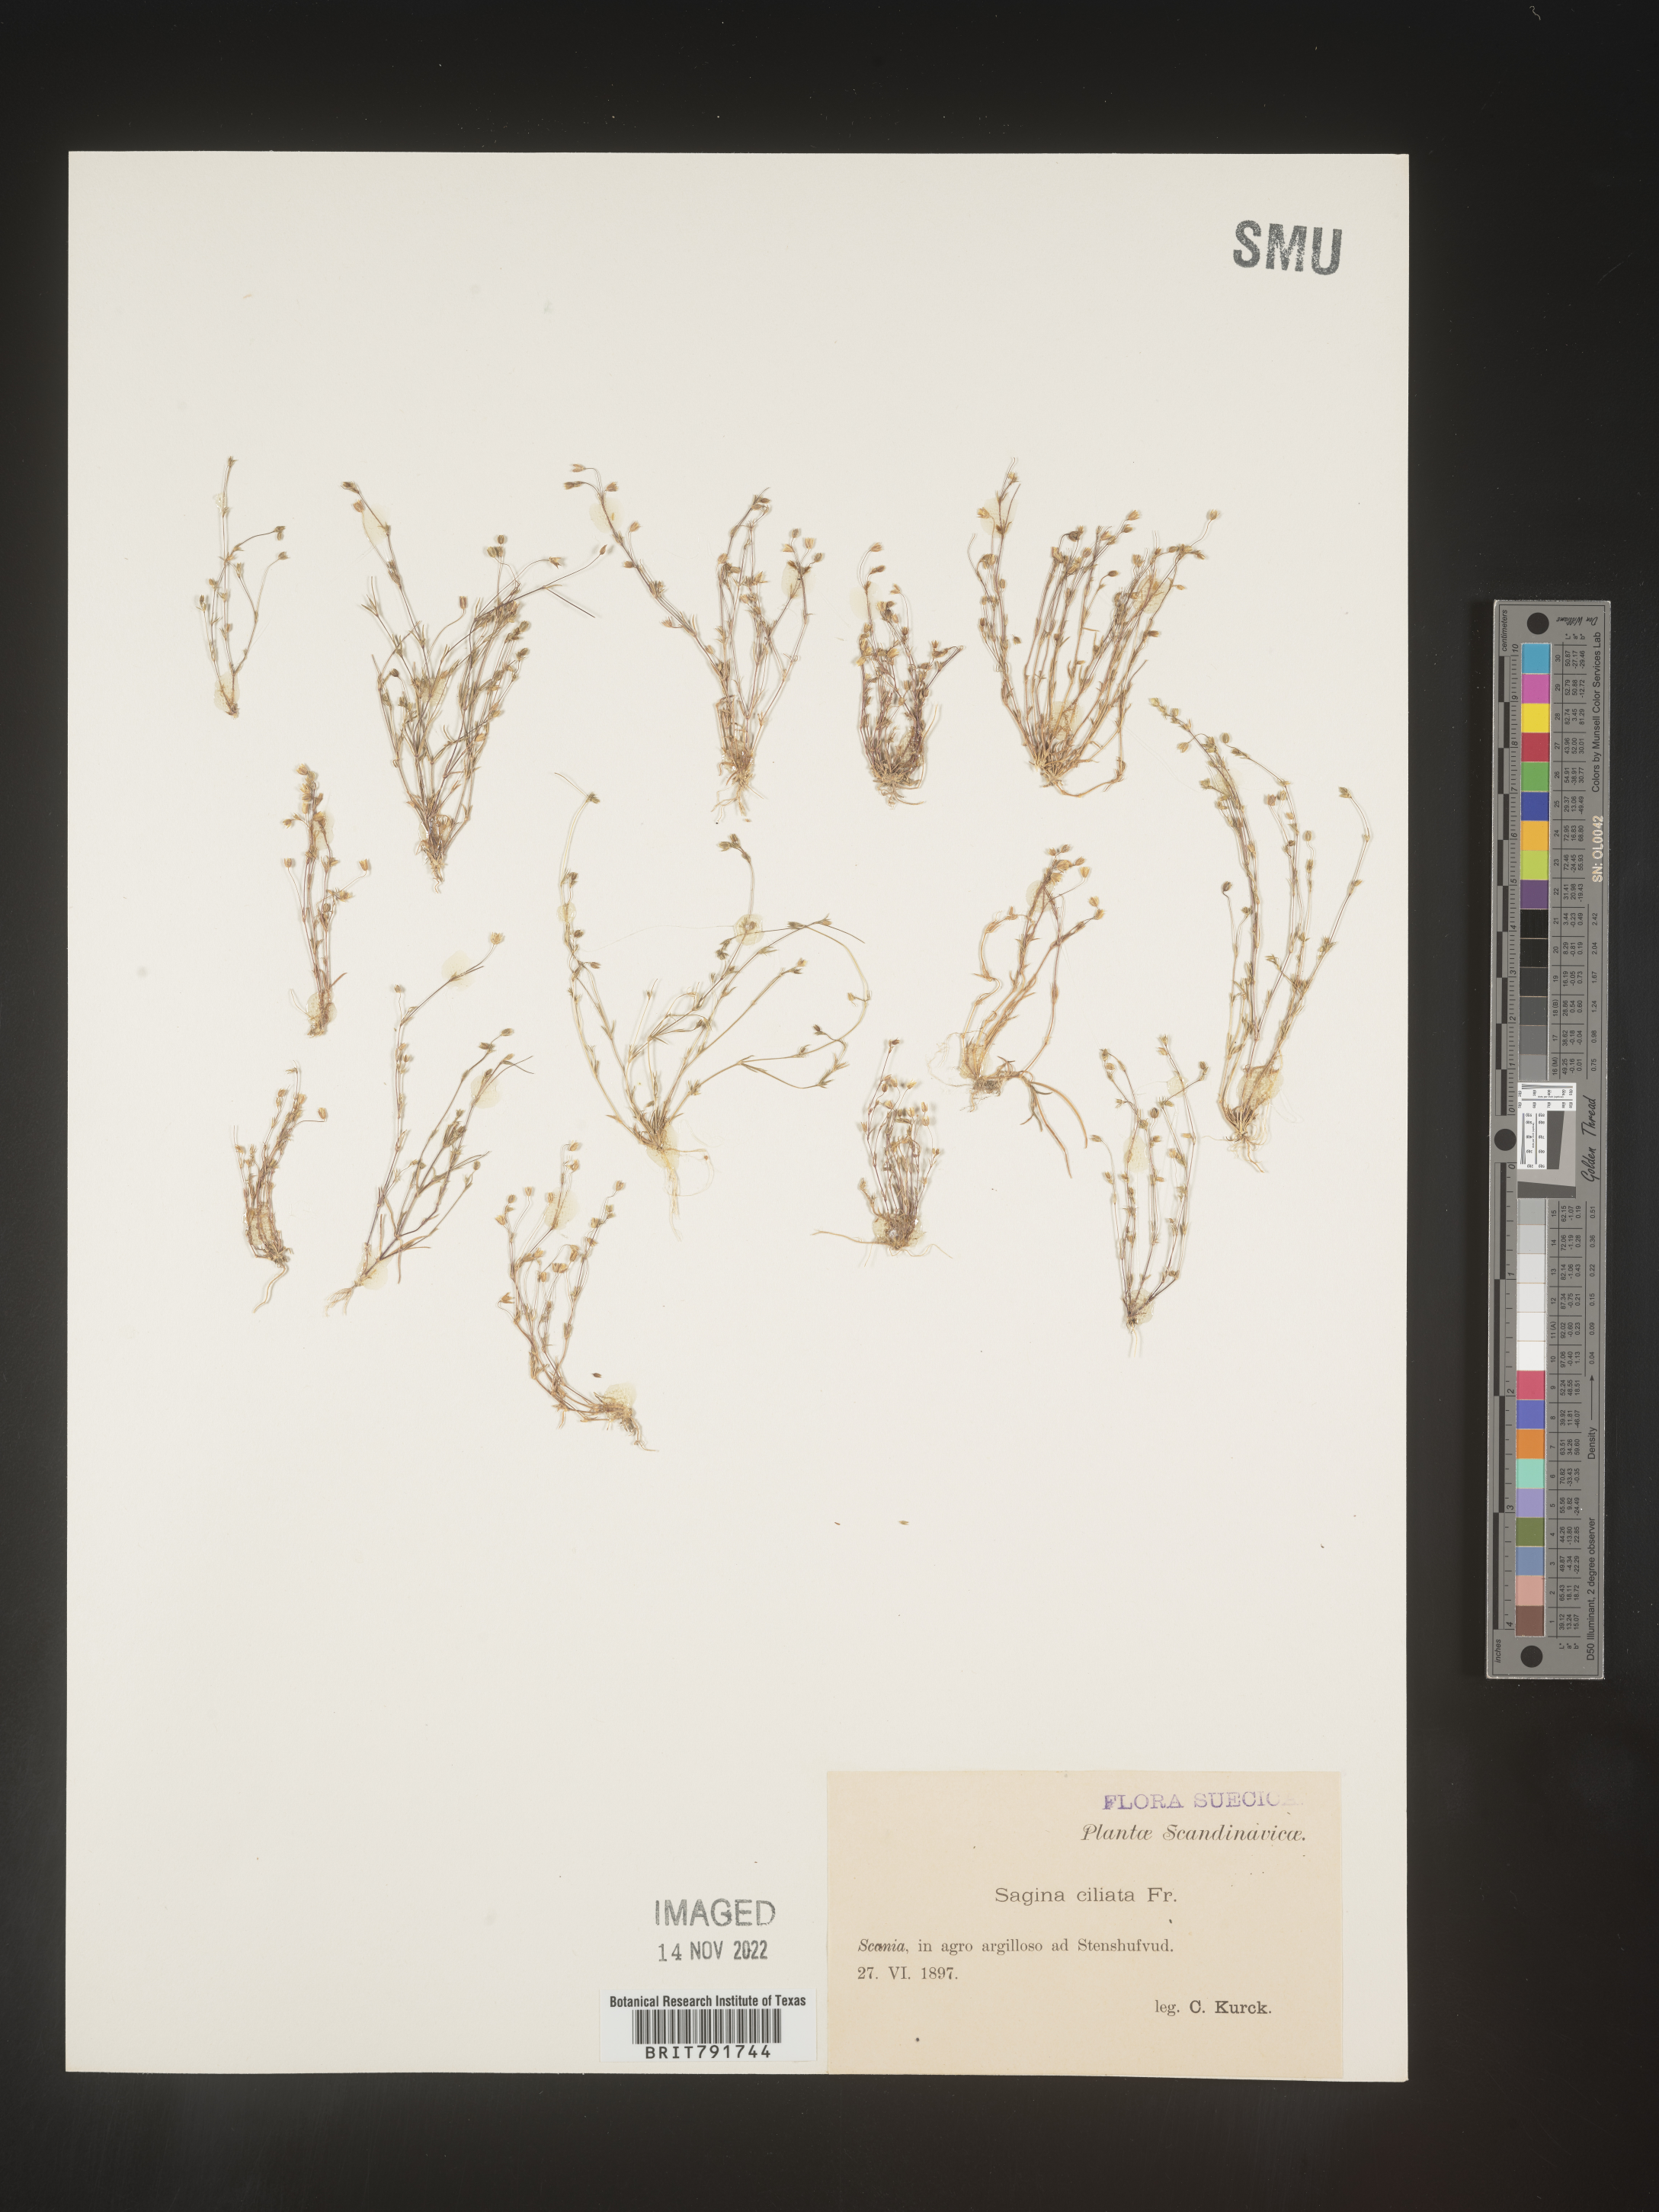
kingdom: Plantae
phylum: Tracheophyta
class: Magnoliopsida
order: Caryophyllales
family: Caryophyllaceae
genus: Sagina
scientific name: Sagina
